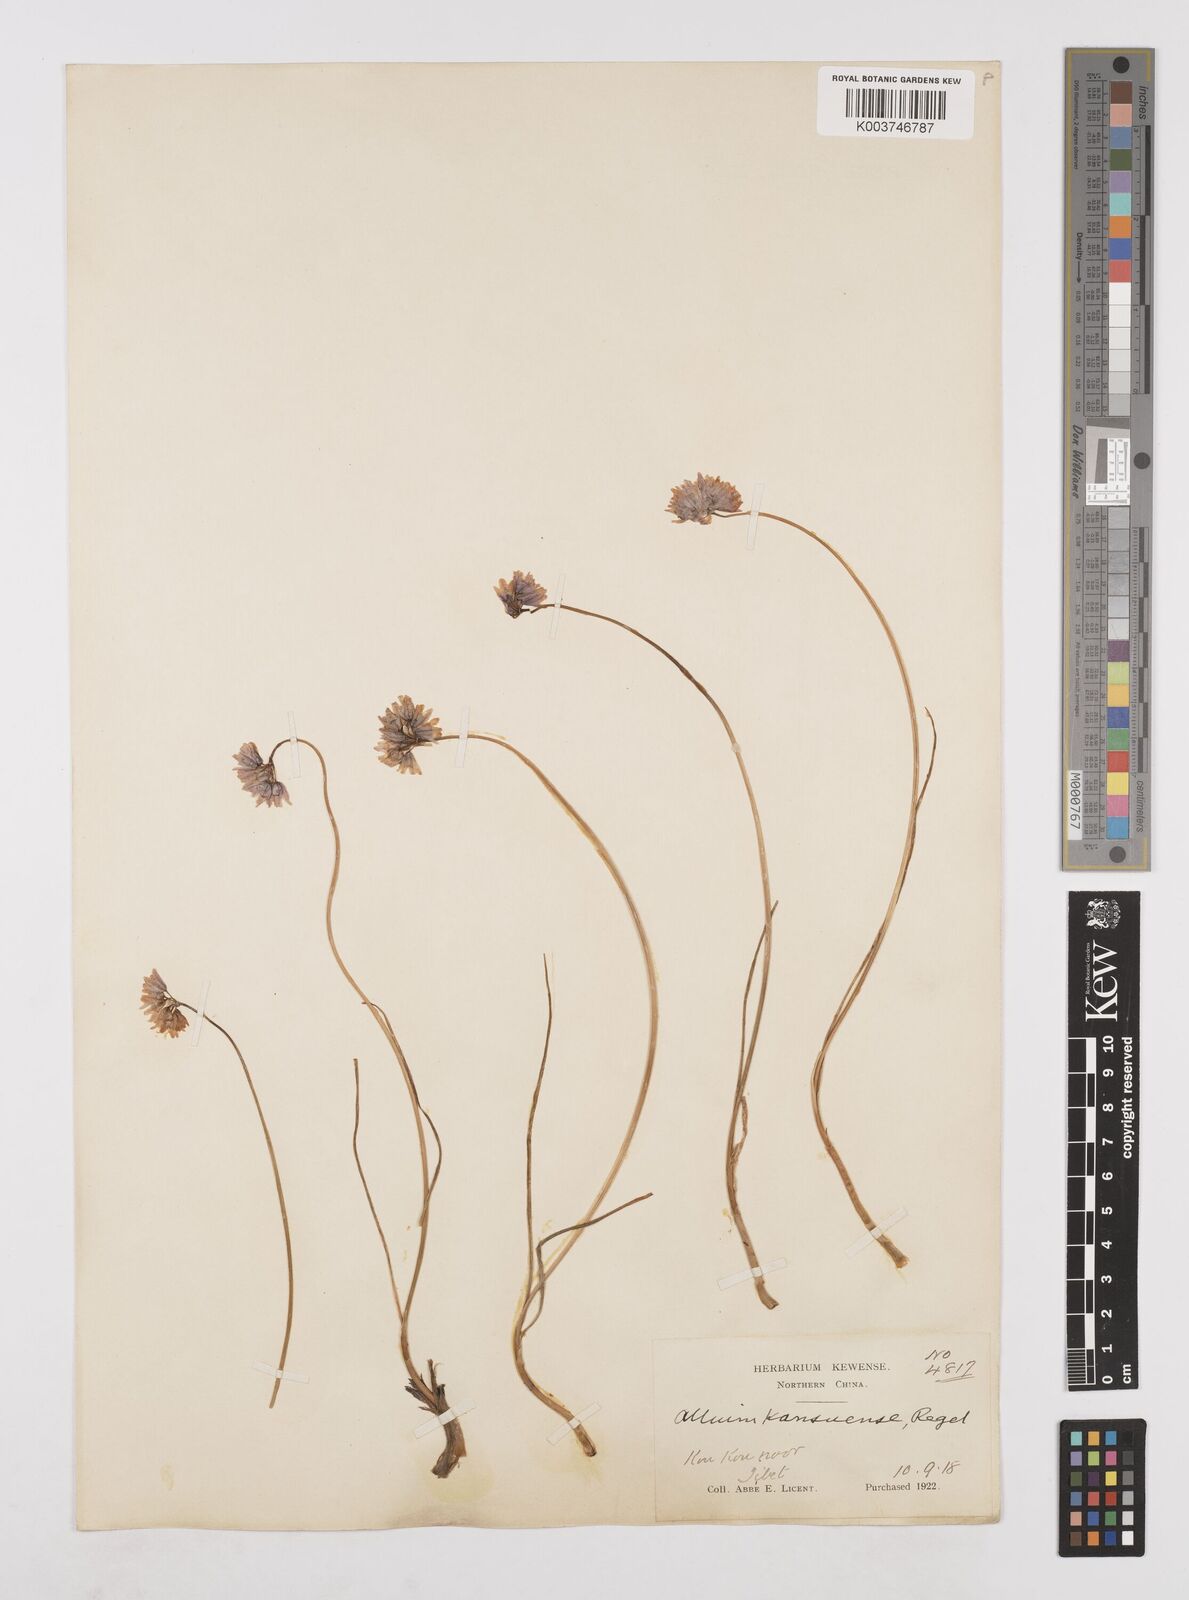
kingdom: Plantae
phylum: Tracheophyta
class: Liliopsida
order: Asparagales
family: Amaryllidaceae
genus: Allium
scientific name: Allium sikkimense
